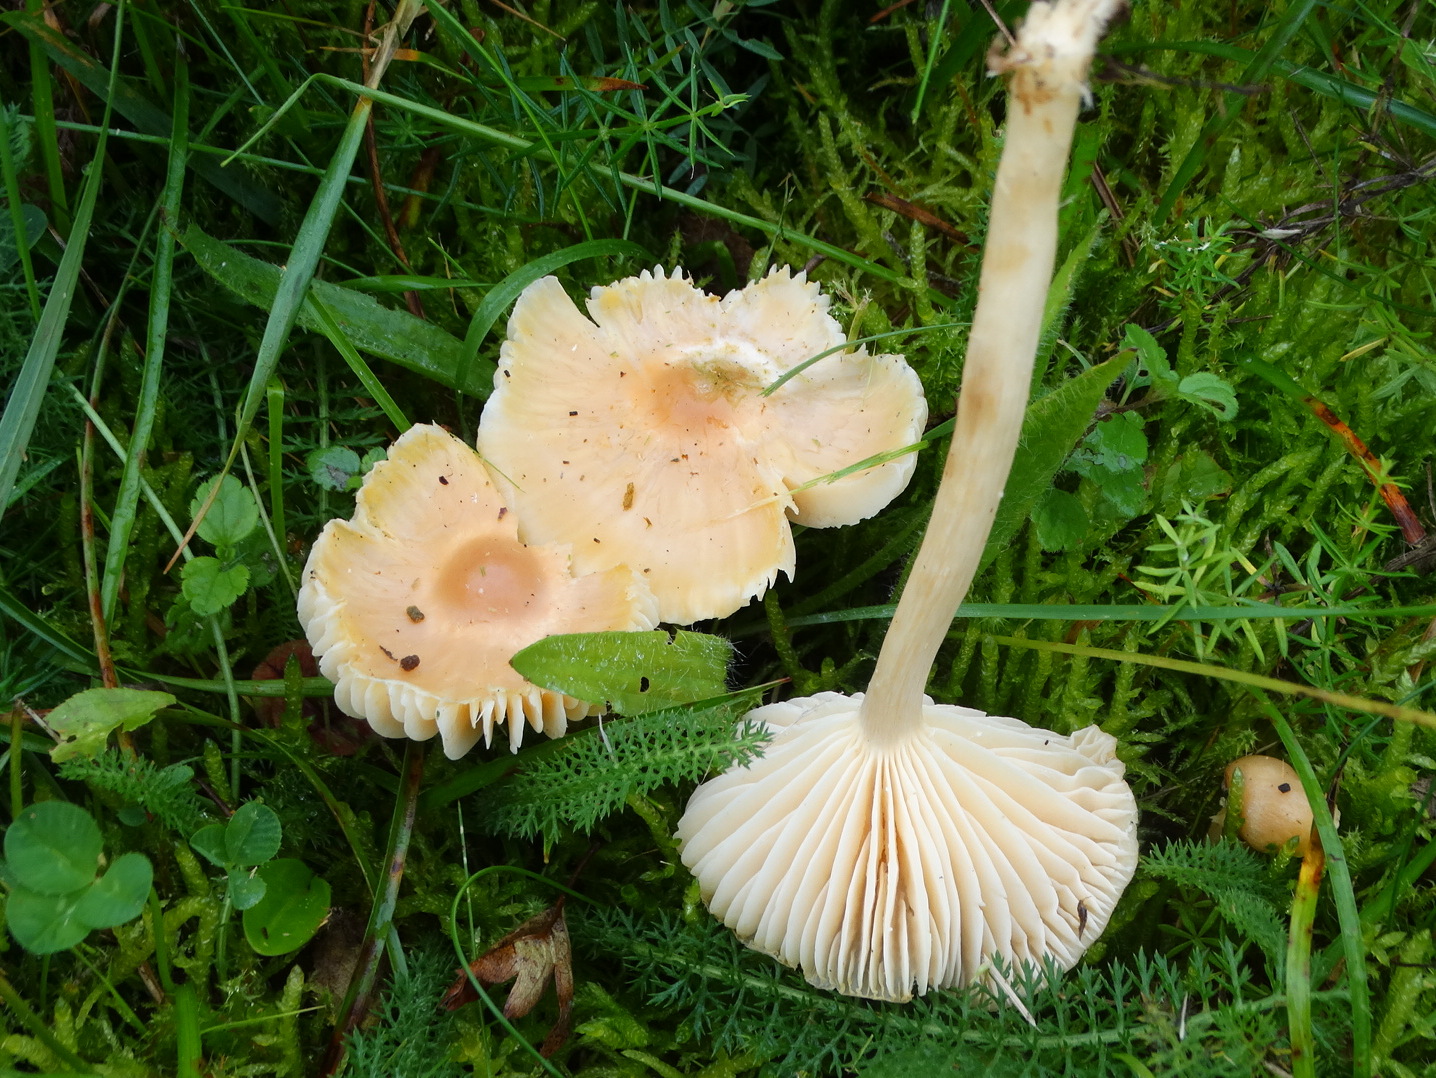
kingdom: Fungi
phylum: Basidiomycota
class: Agaricomycetes
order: Agaricales
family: Hygrophoraceae
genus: Cuphophyllus
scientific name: Cuphophyllus pratensis
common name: eng-vokshat
